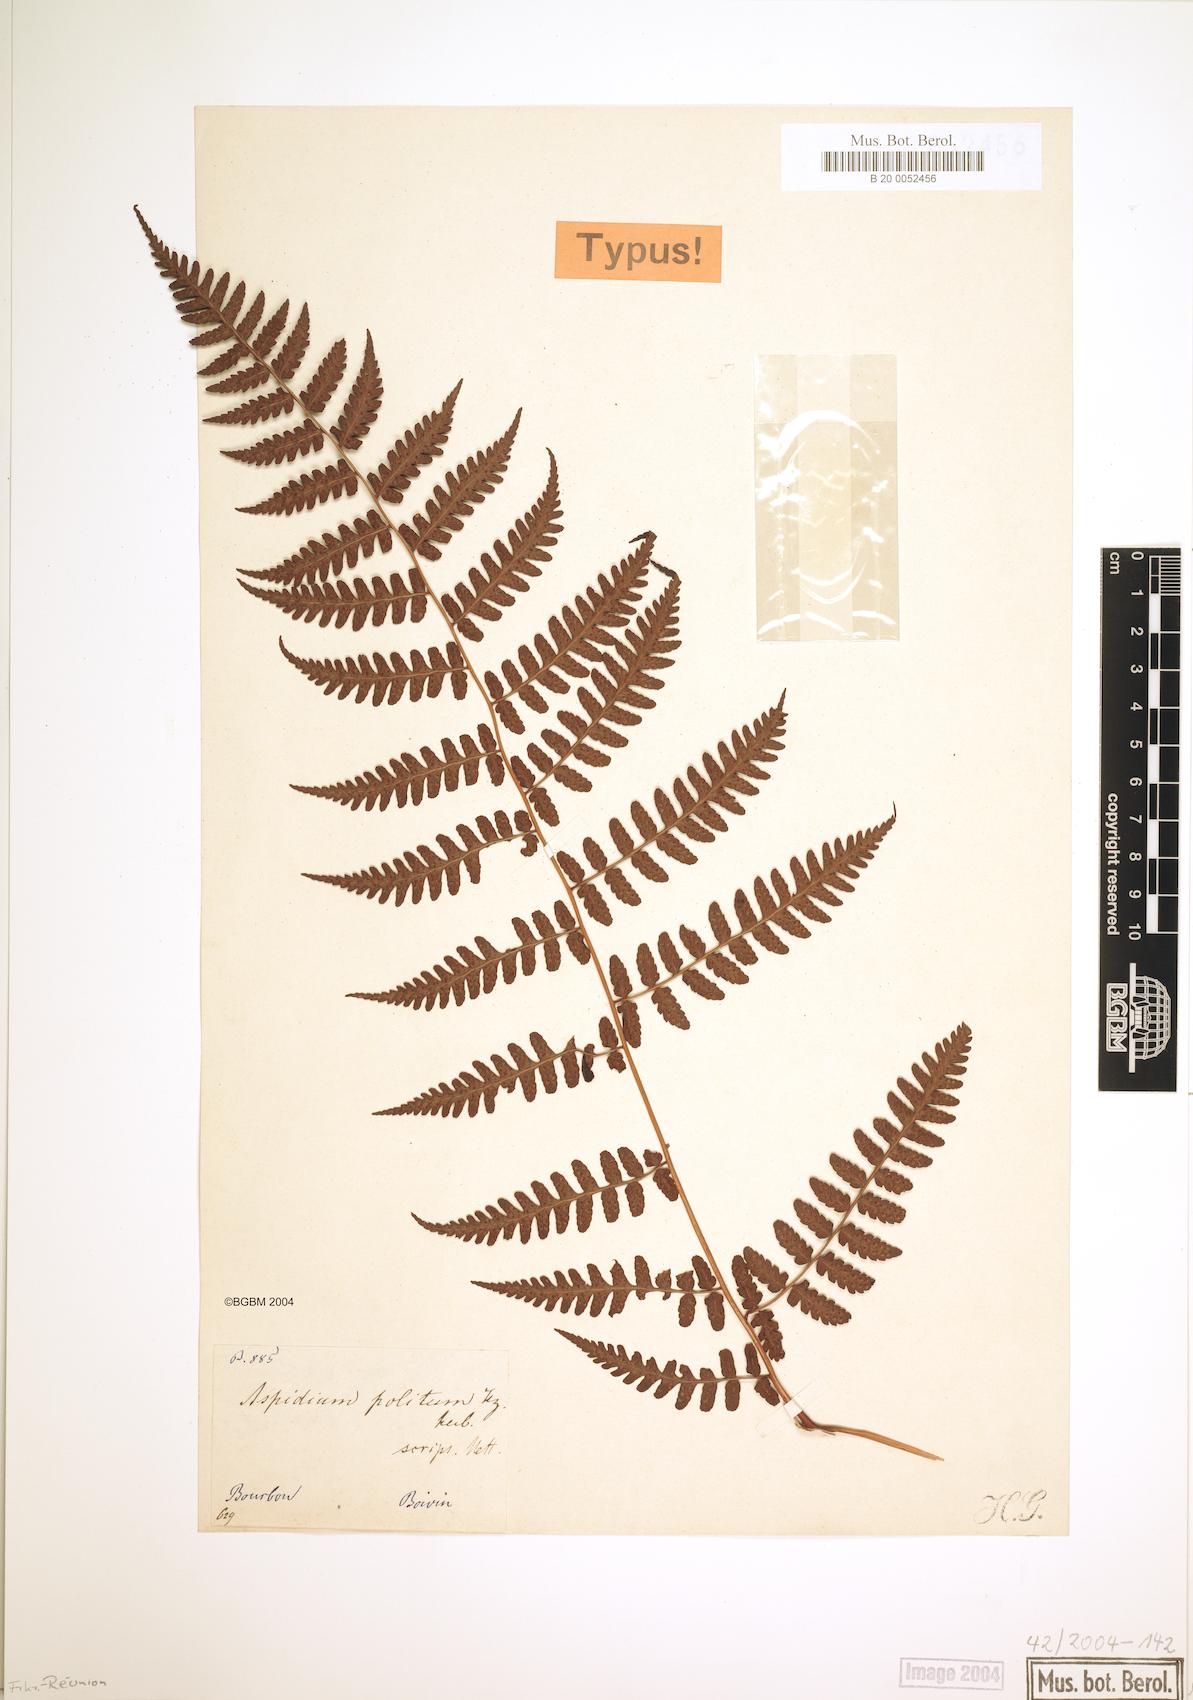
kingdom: Plantae
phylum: Tracheophyta
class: Polypodiopsida
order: Polypodiales
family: Dryopteridaceae
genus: Rumohra
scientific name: Rumohra adiantiformis
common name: Leather fern
